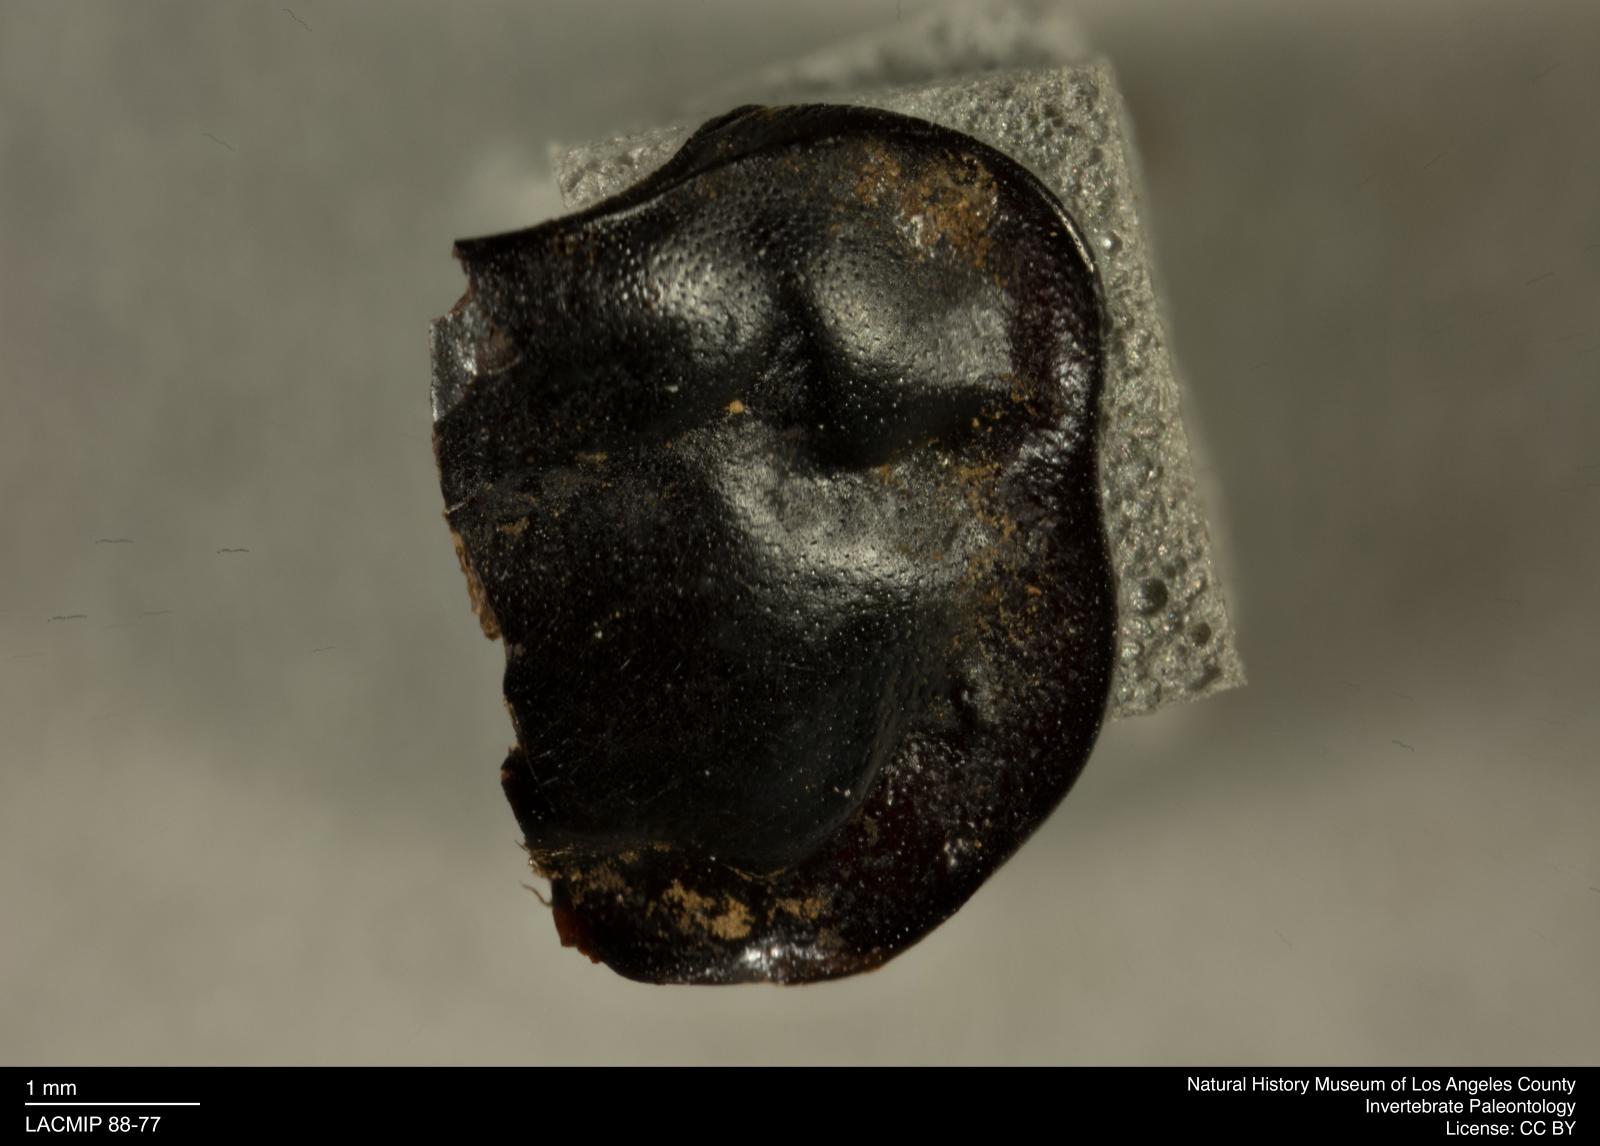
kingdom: Animalia
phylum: Arthropoda
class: Insecta
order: Coleoptera
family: Staphylinidae
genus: Nicrophorus
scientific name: Nicrophorus marginatus
